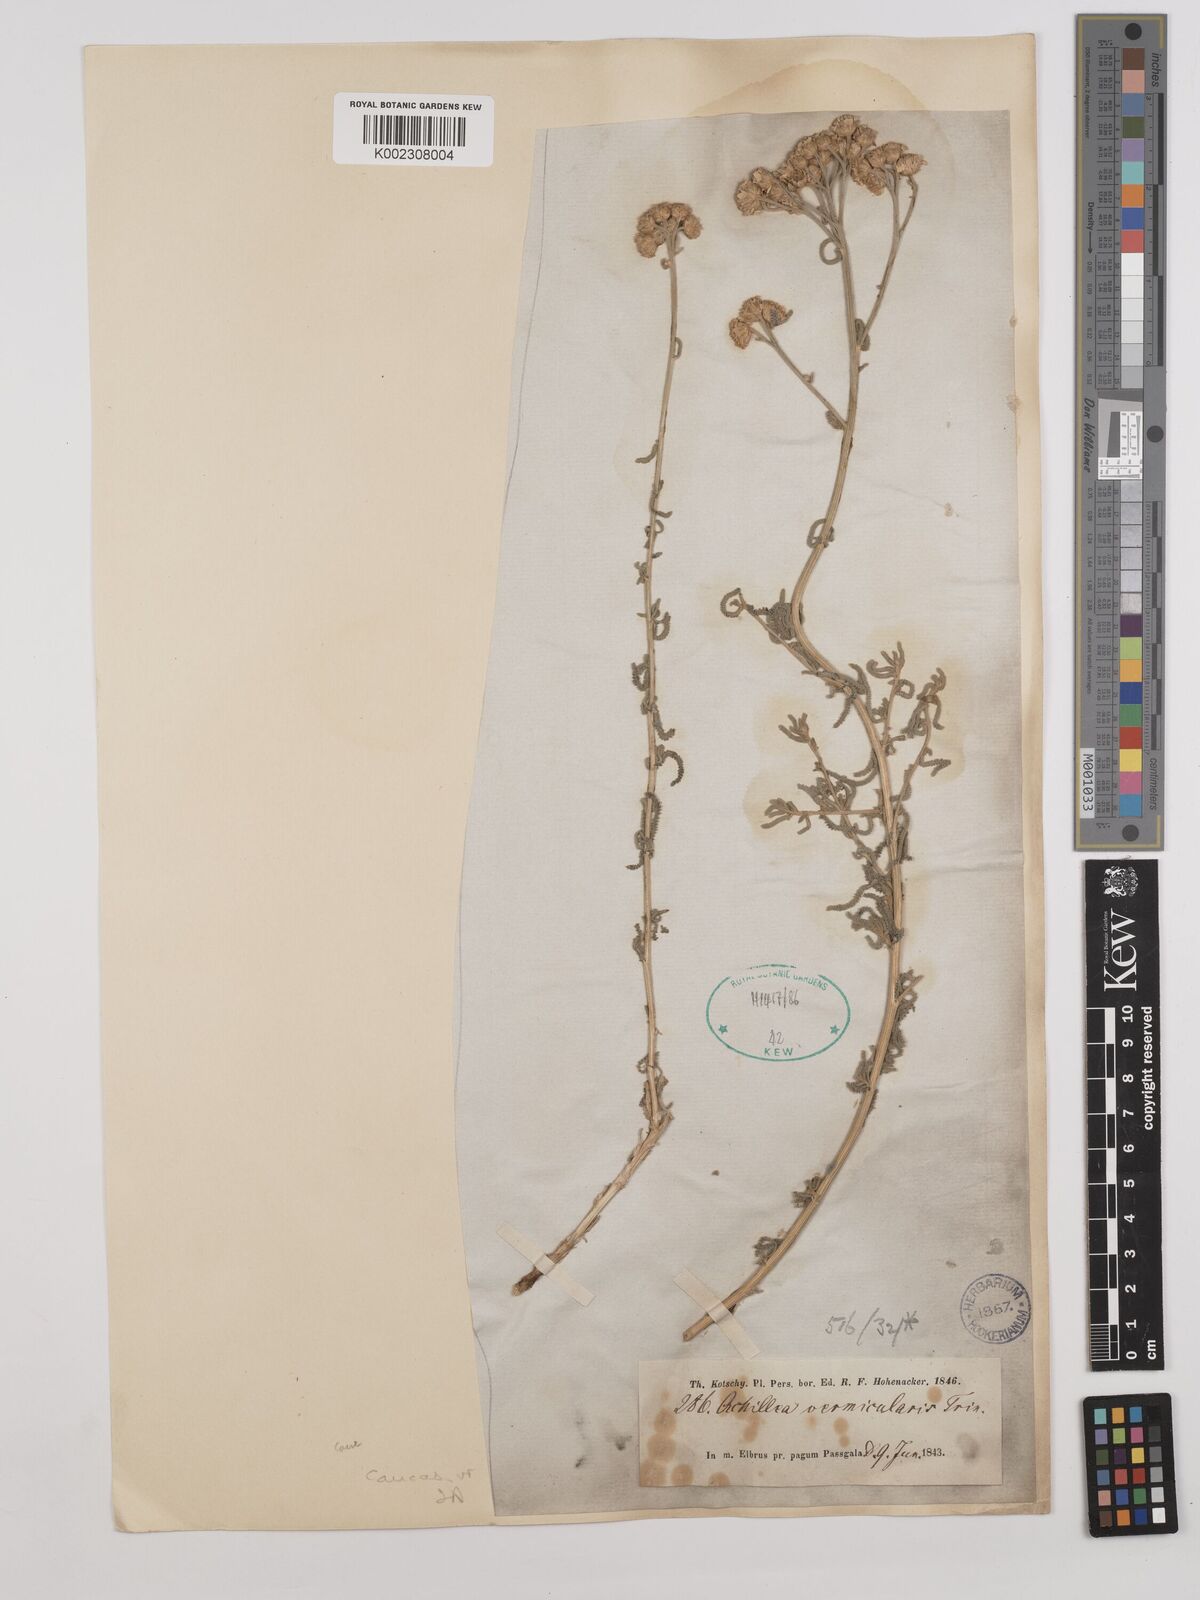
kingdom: Plantae
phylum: Tracheophyta
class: Magnoliopsida
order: Asterales
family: Asteraceae
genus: Achillea
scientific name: Achillea vermicularis
